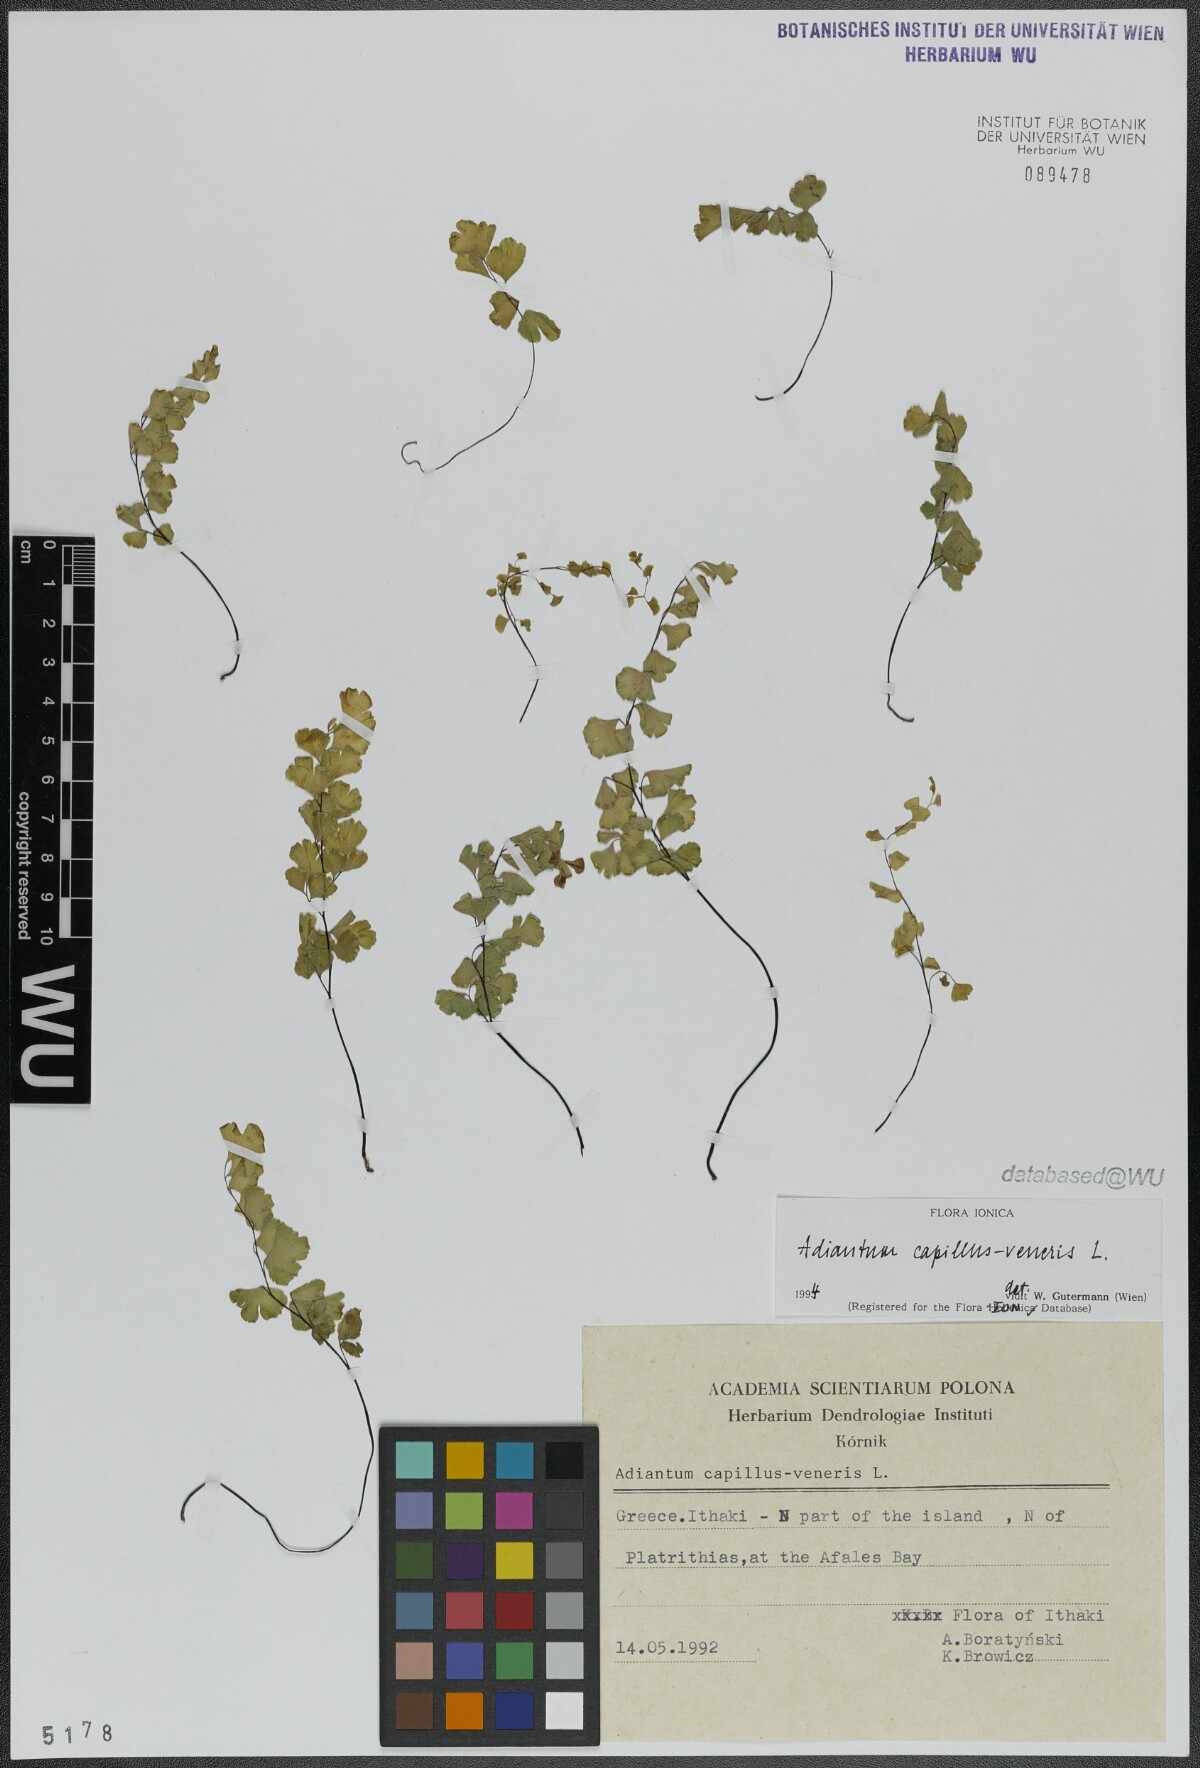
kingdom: Plantae
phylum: Tracheophyta
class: Polypodiopsida
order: Polypodiales
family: Pteridaceae
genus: Adiantum
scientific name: Adiantum capillus-veneris
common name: Maidenhair fern
